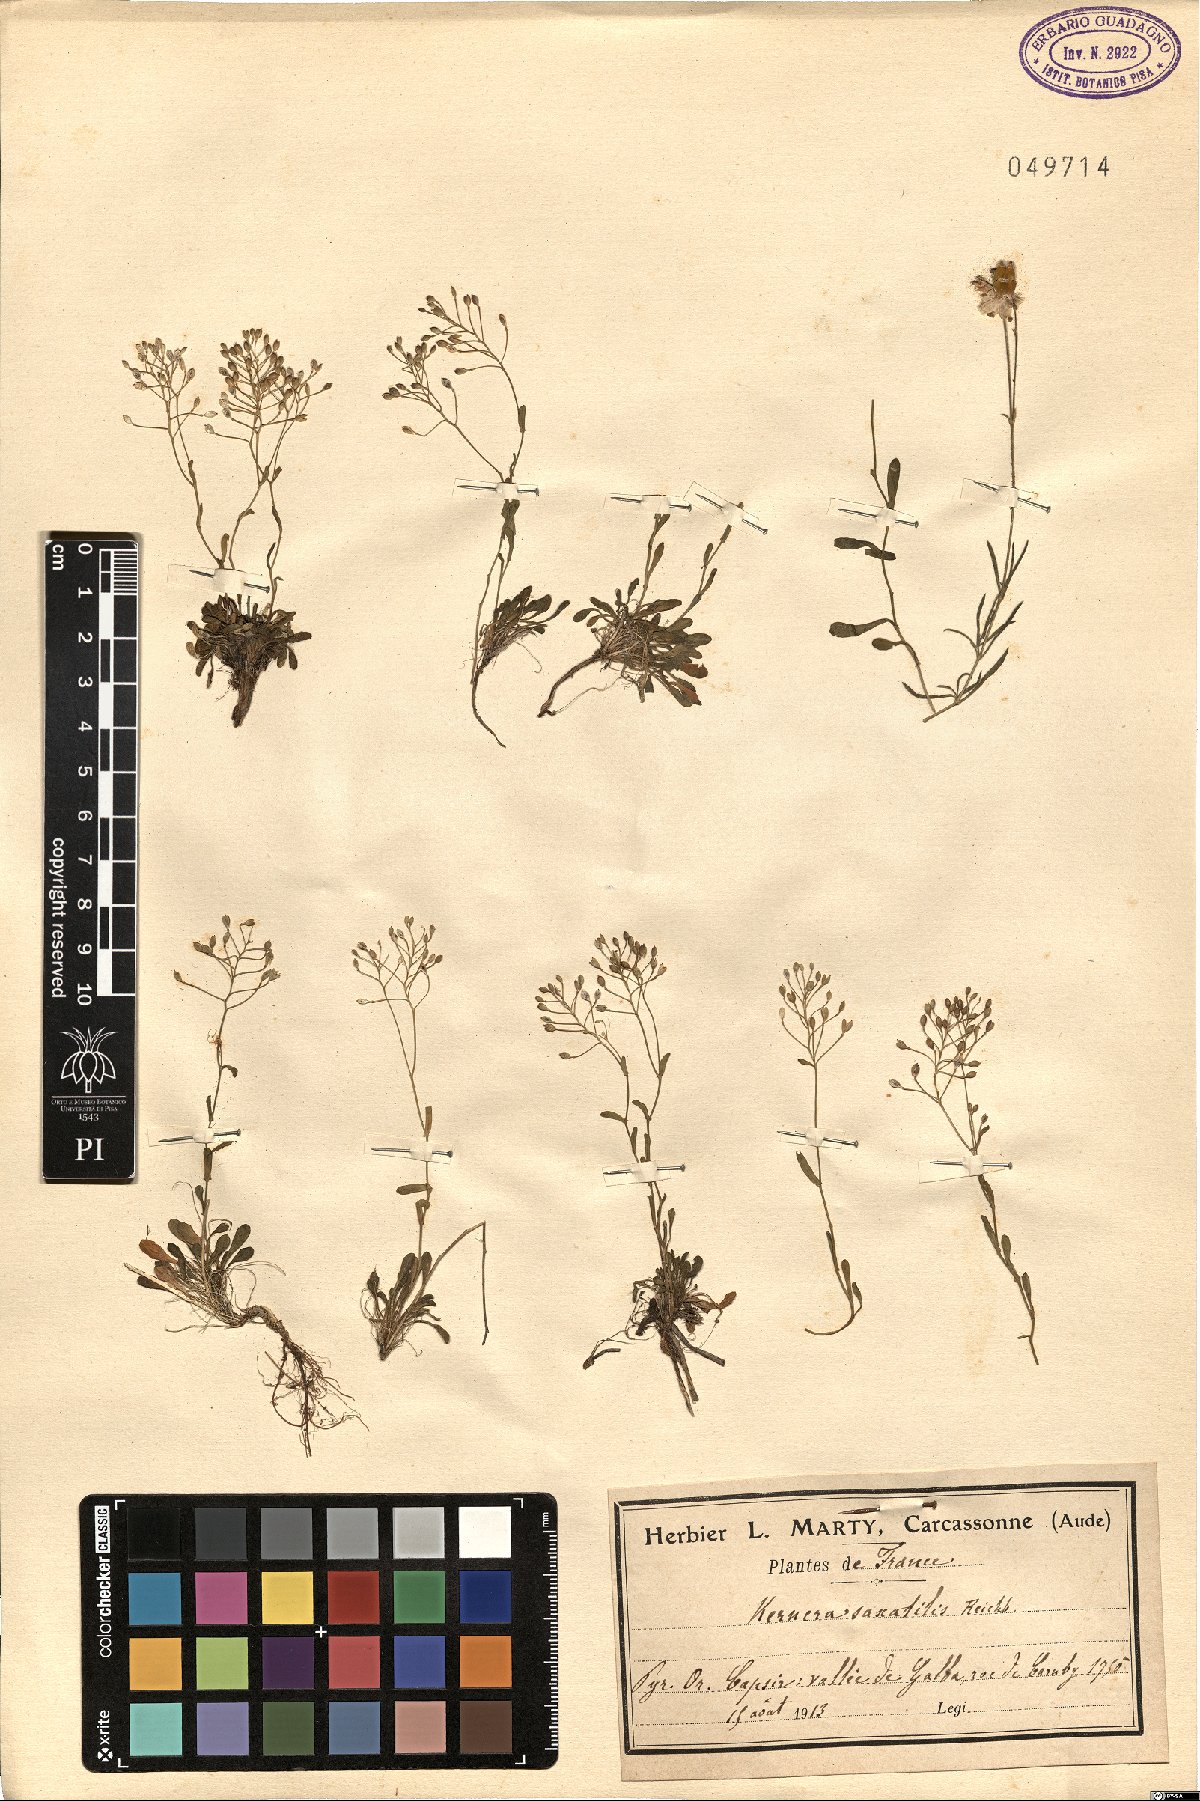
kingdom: Plantae
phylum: Tracheophyta
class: Magnoliopsida
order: Brassicales
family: Brassicaceae
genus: Kernera
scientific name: Kernera saxatilis
